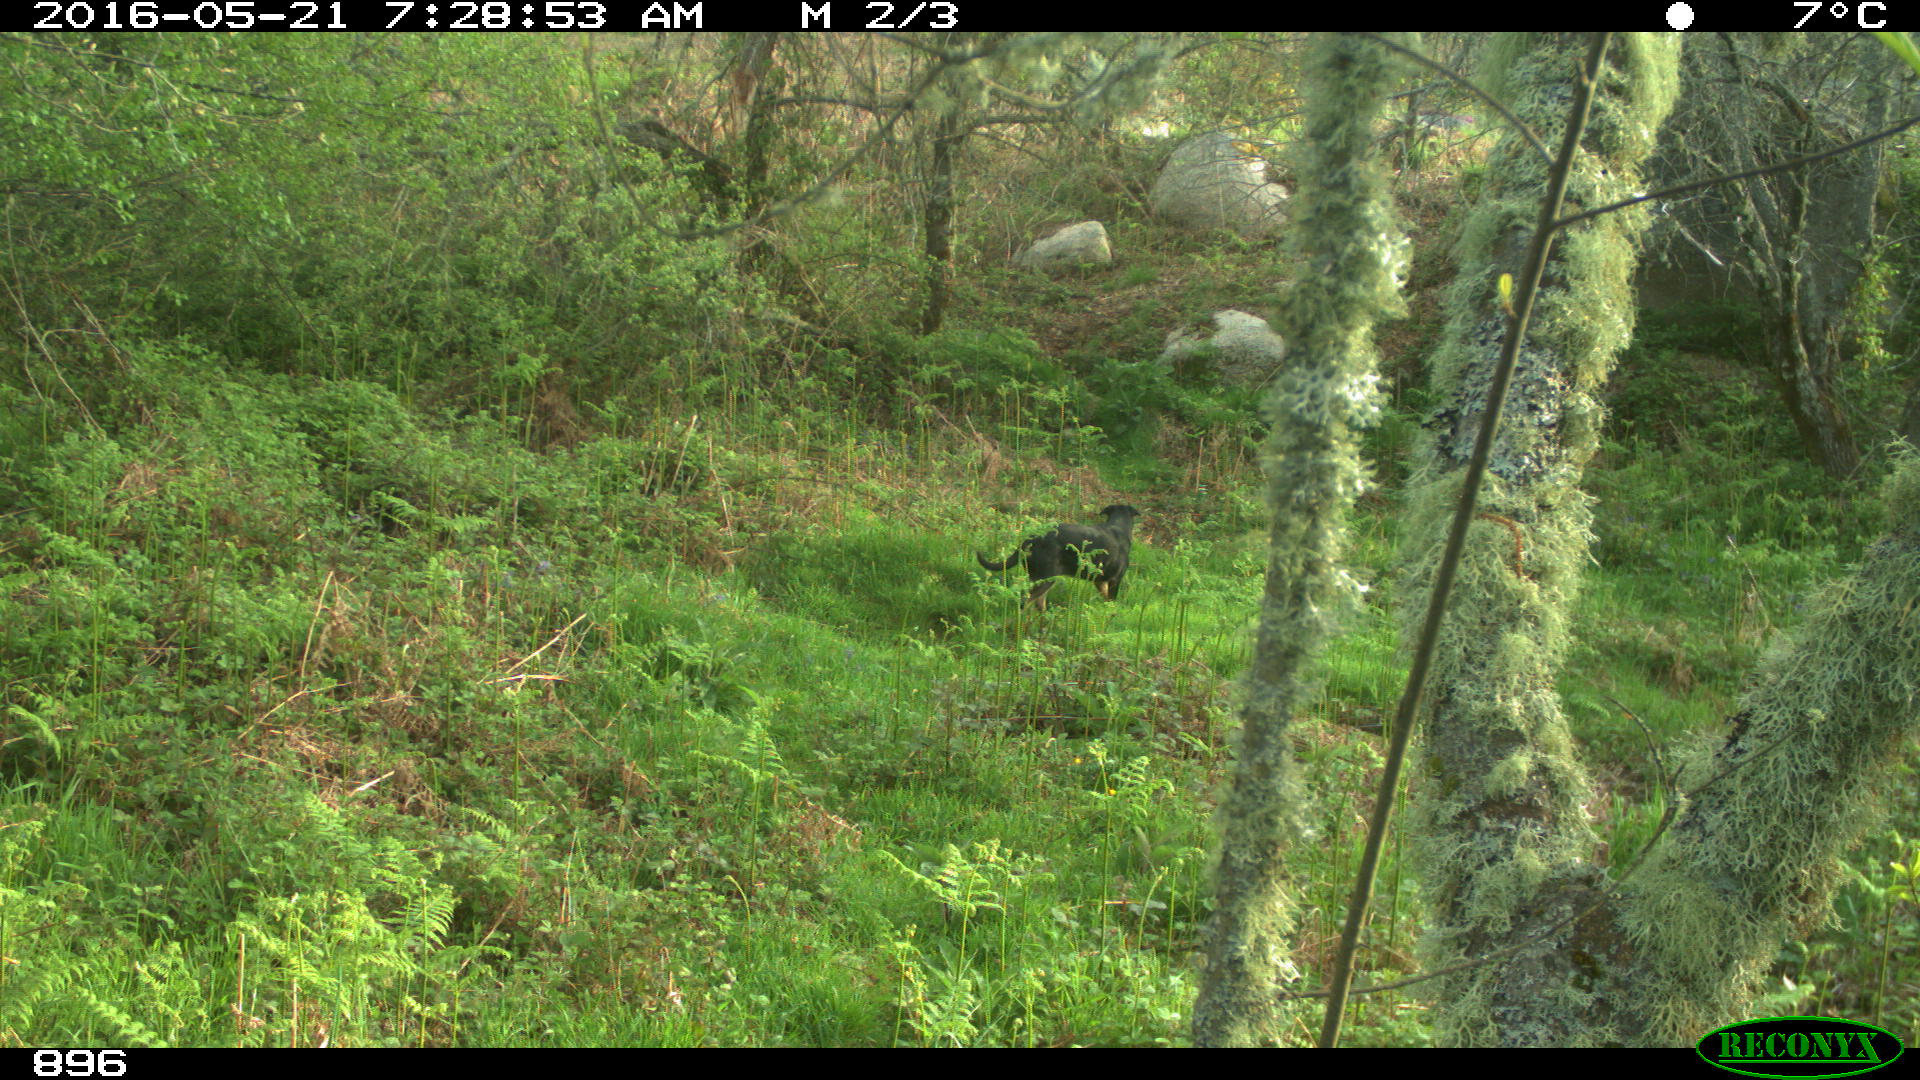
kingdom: Animalia
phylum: Chordata
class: Mammalia
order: Carnivora
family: Canidae
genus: Canis
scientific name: Canis lupus
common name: Gray wolf
